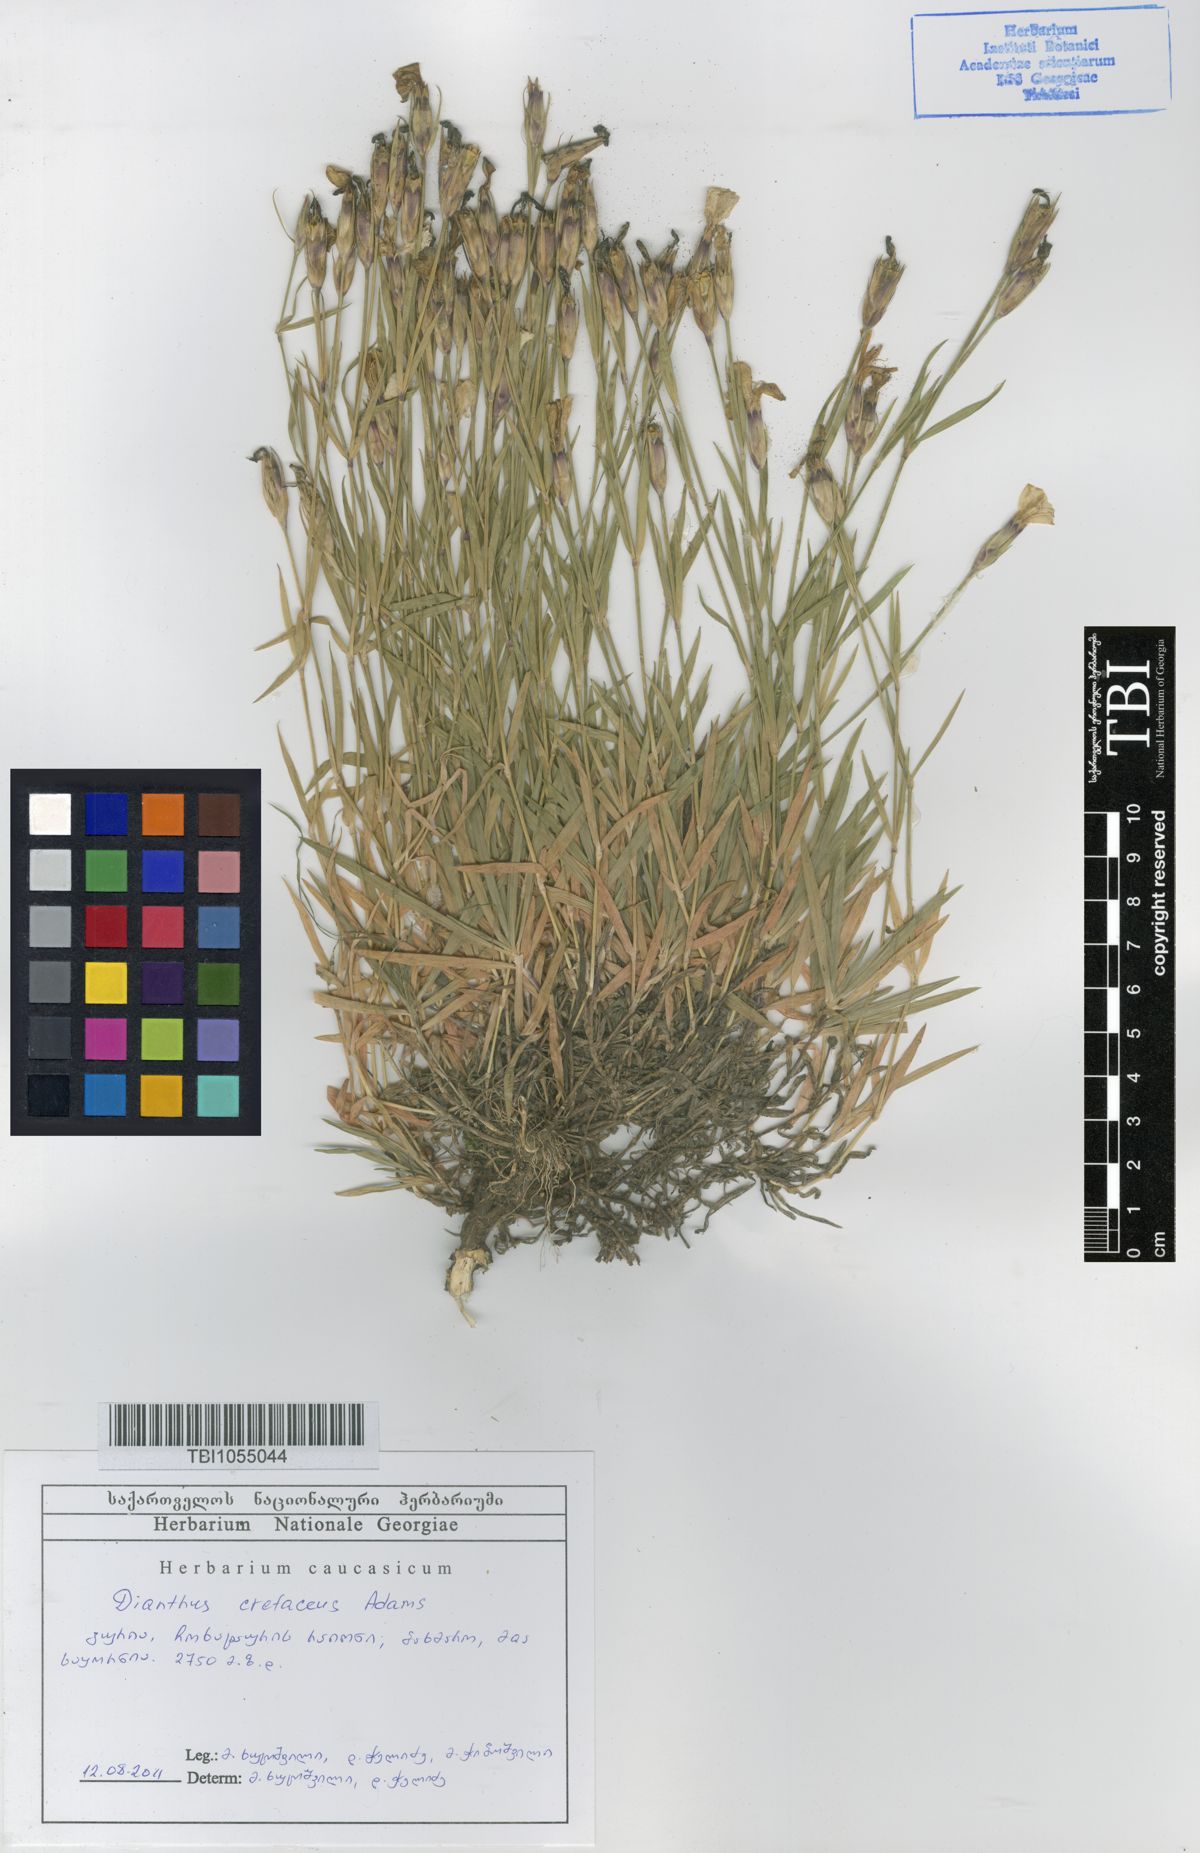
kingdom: Plantae
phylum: Tracheophyta
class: Magnoliopsida
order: Caryophyllales
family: Caryophyllaceae
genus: Dianthus
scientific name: Dianthus cretaceus
